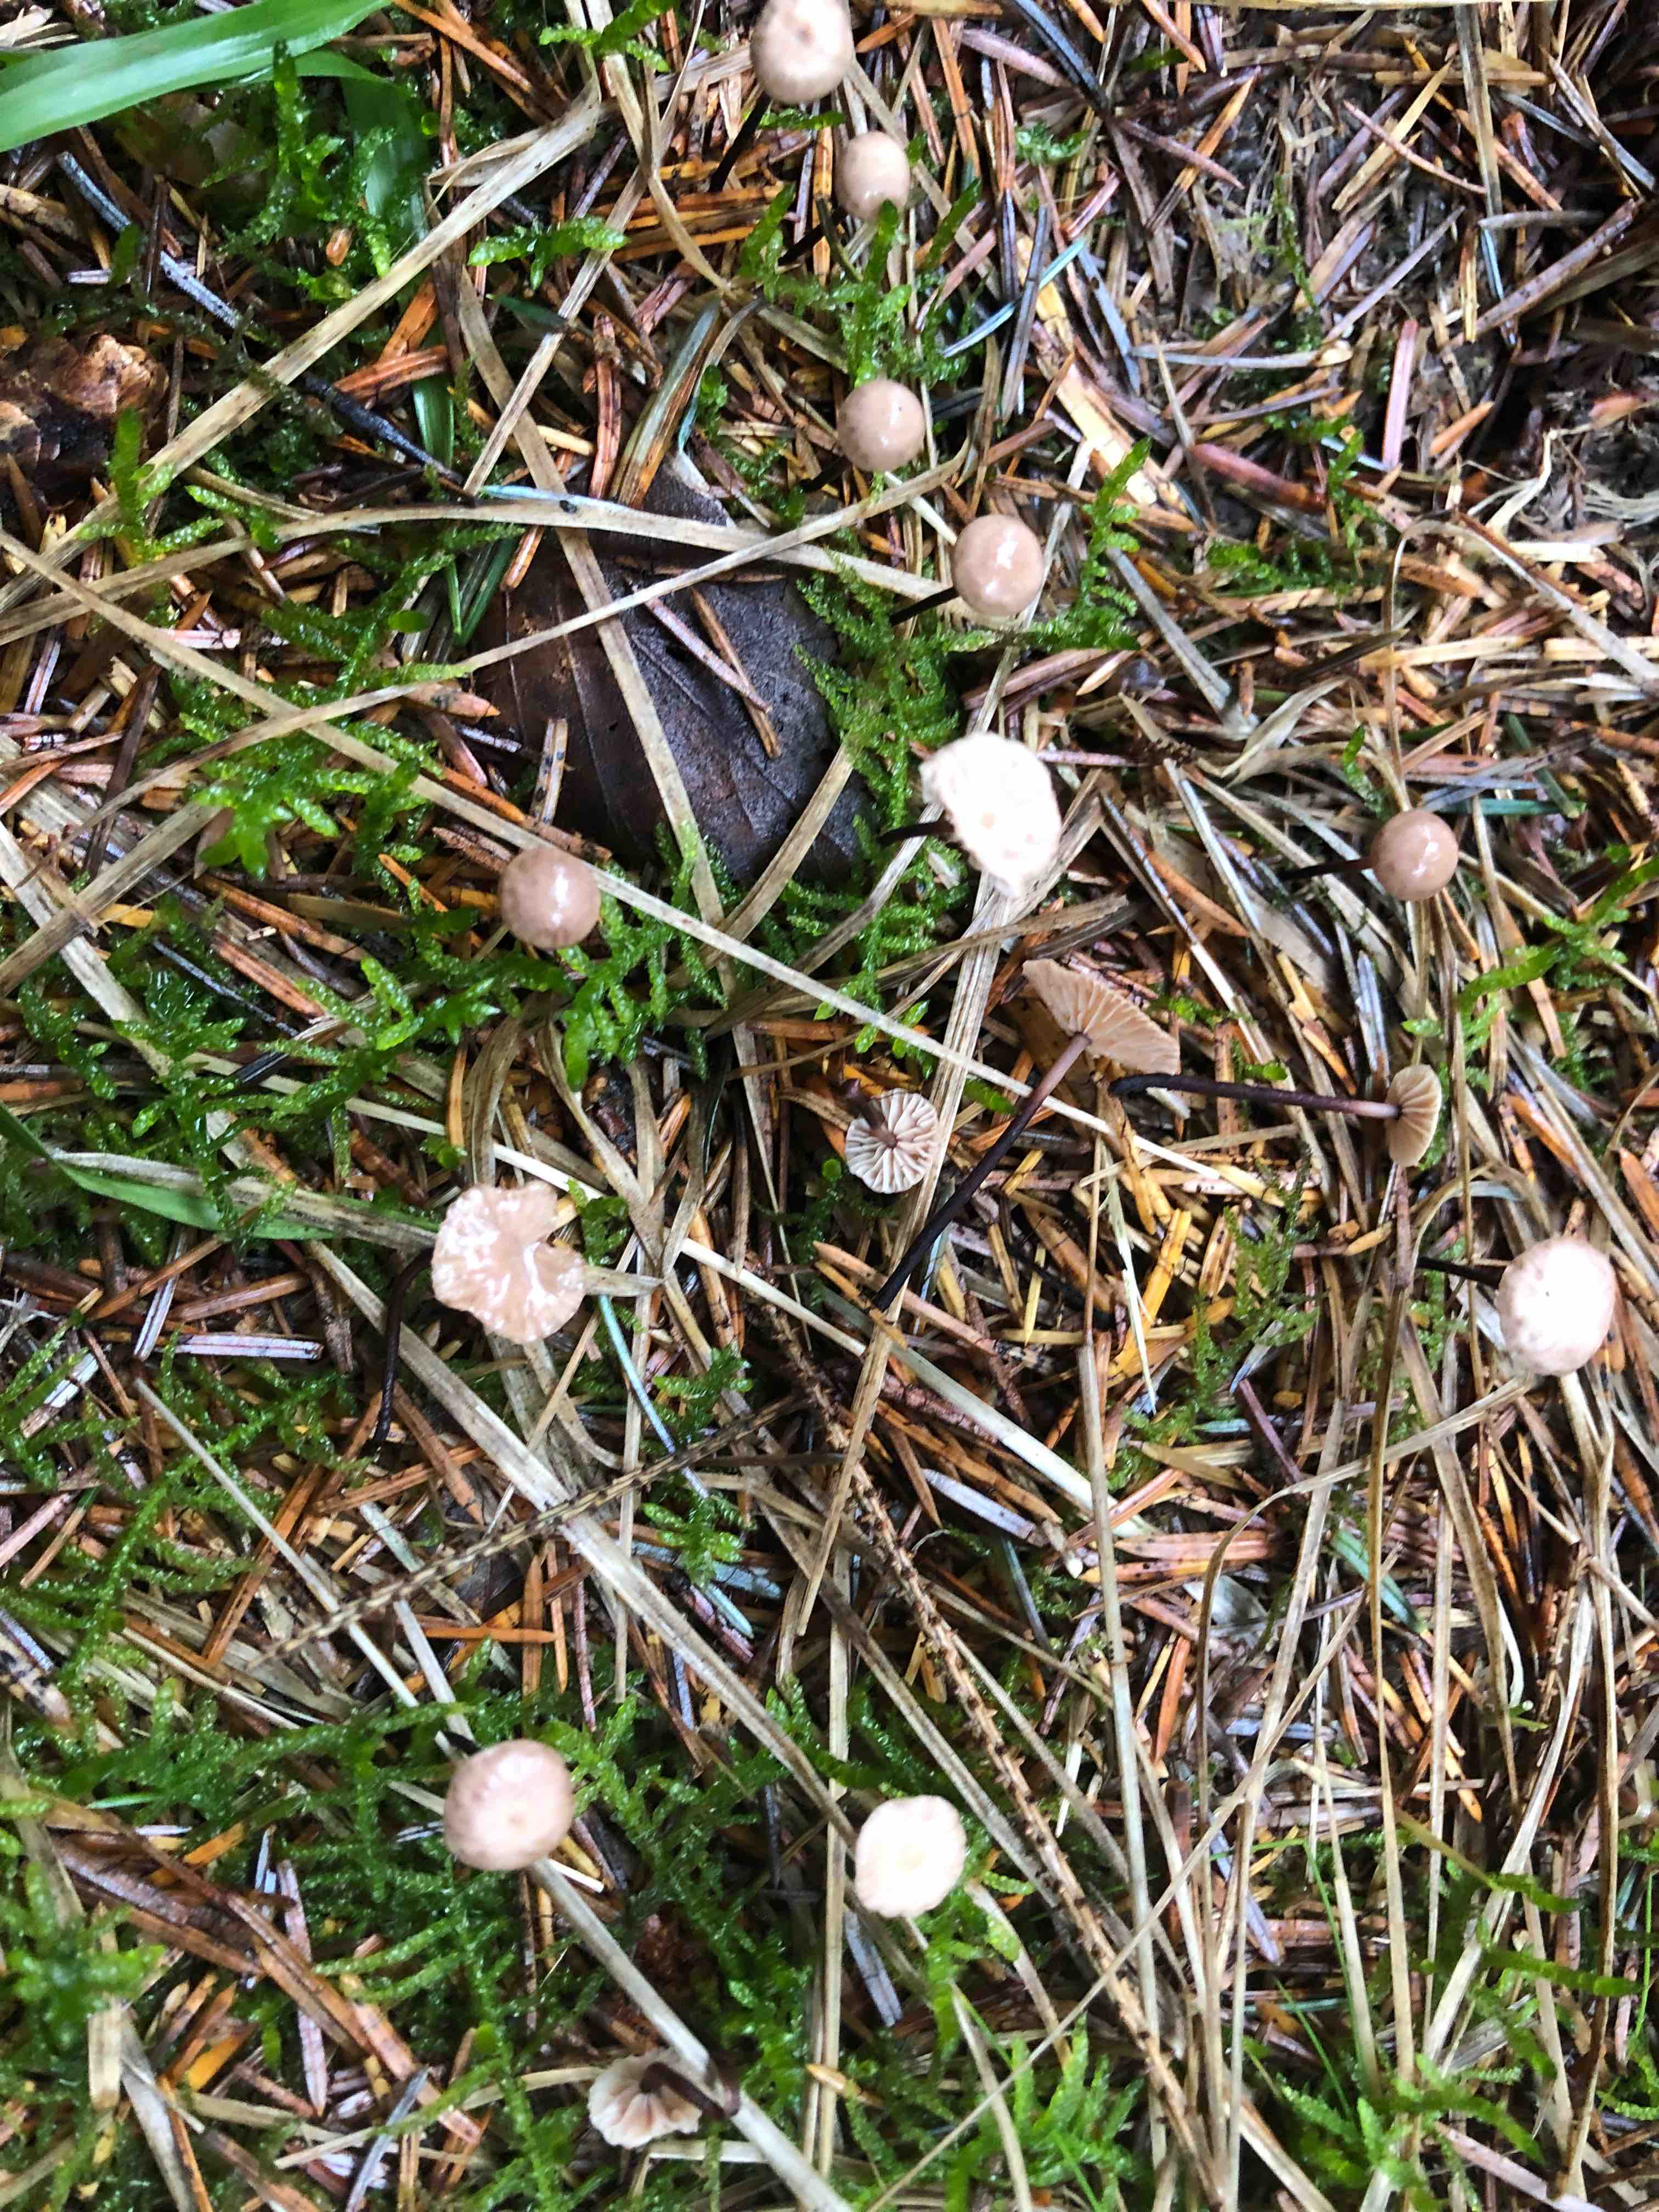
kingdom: Fungi
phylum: Basidiomycota
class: Agaricomycetes
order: Agaricales
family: Omphalotaceae
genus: Paragymnopus
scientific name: Paragymnopus perforans
